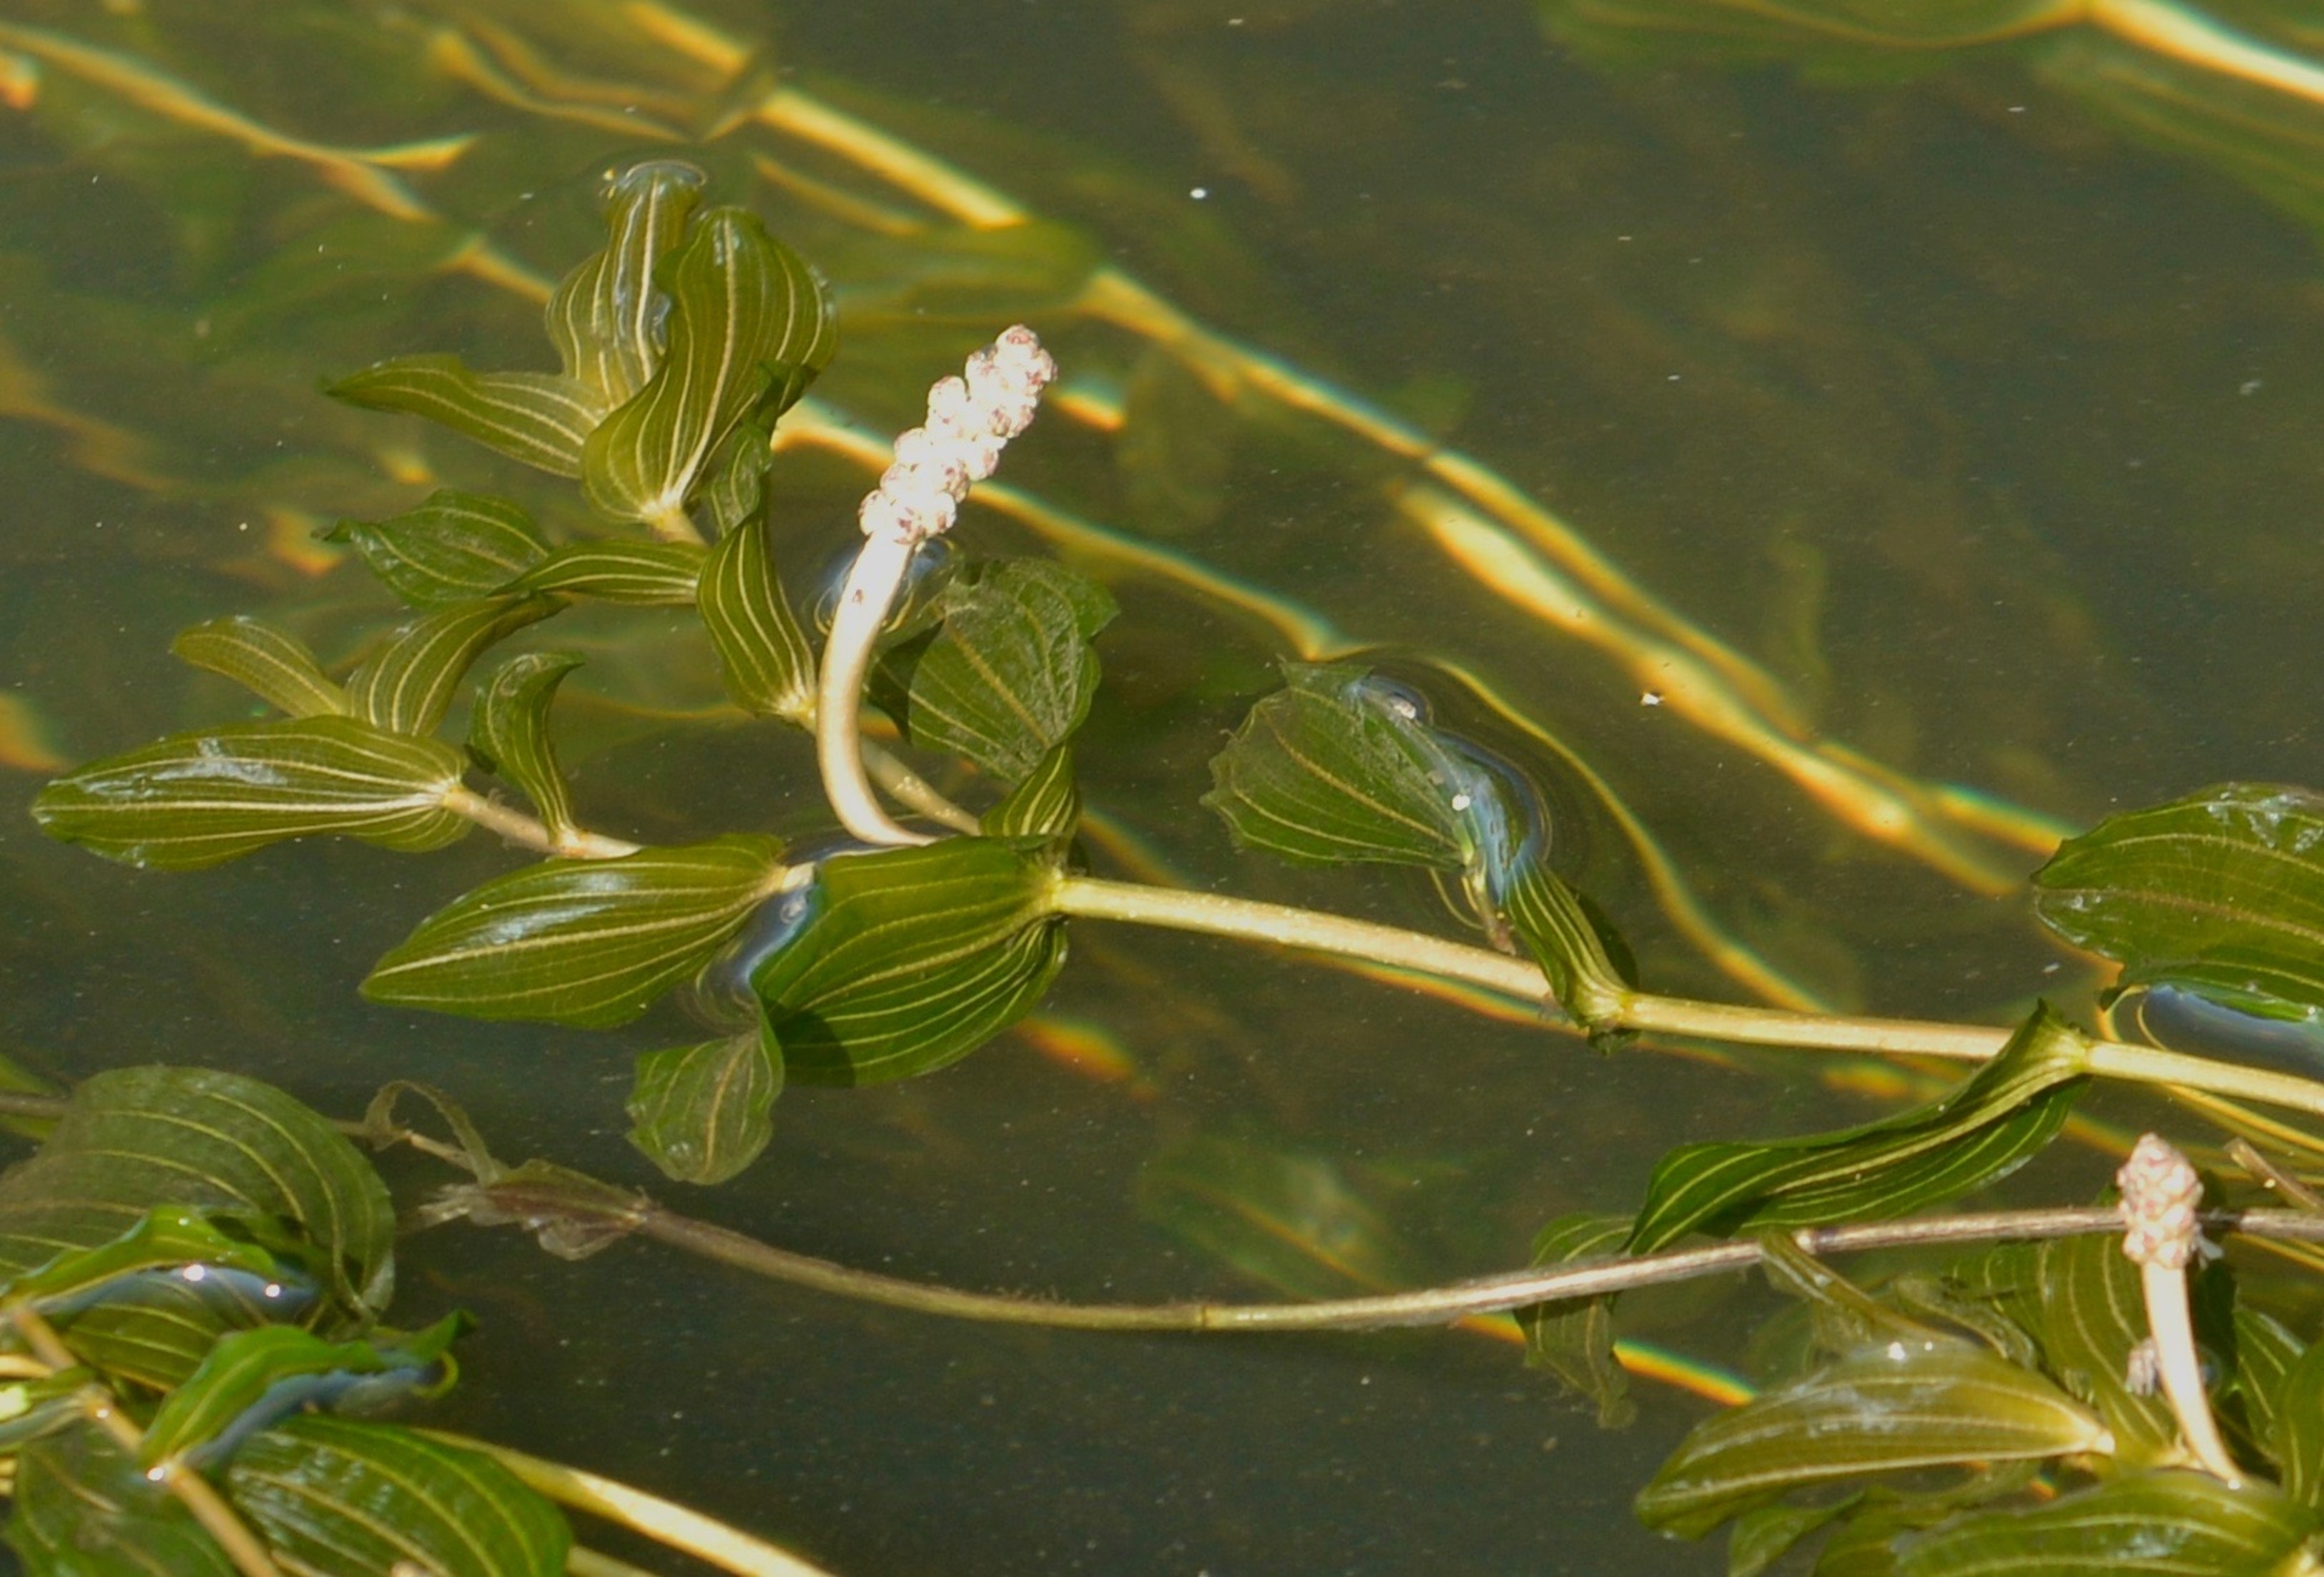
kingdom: Plantae
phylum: Tracheophyta
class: Liliopsida
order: Alismatales
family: Potamogetonaceae
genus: Potamogeton
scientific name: Potamogeton perfoliatus
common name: Hjertebladet vandaks
